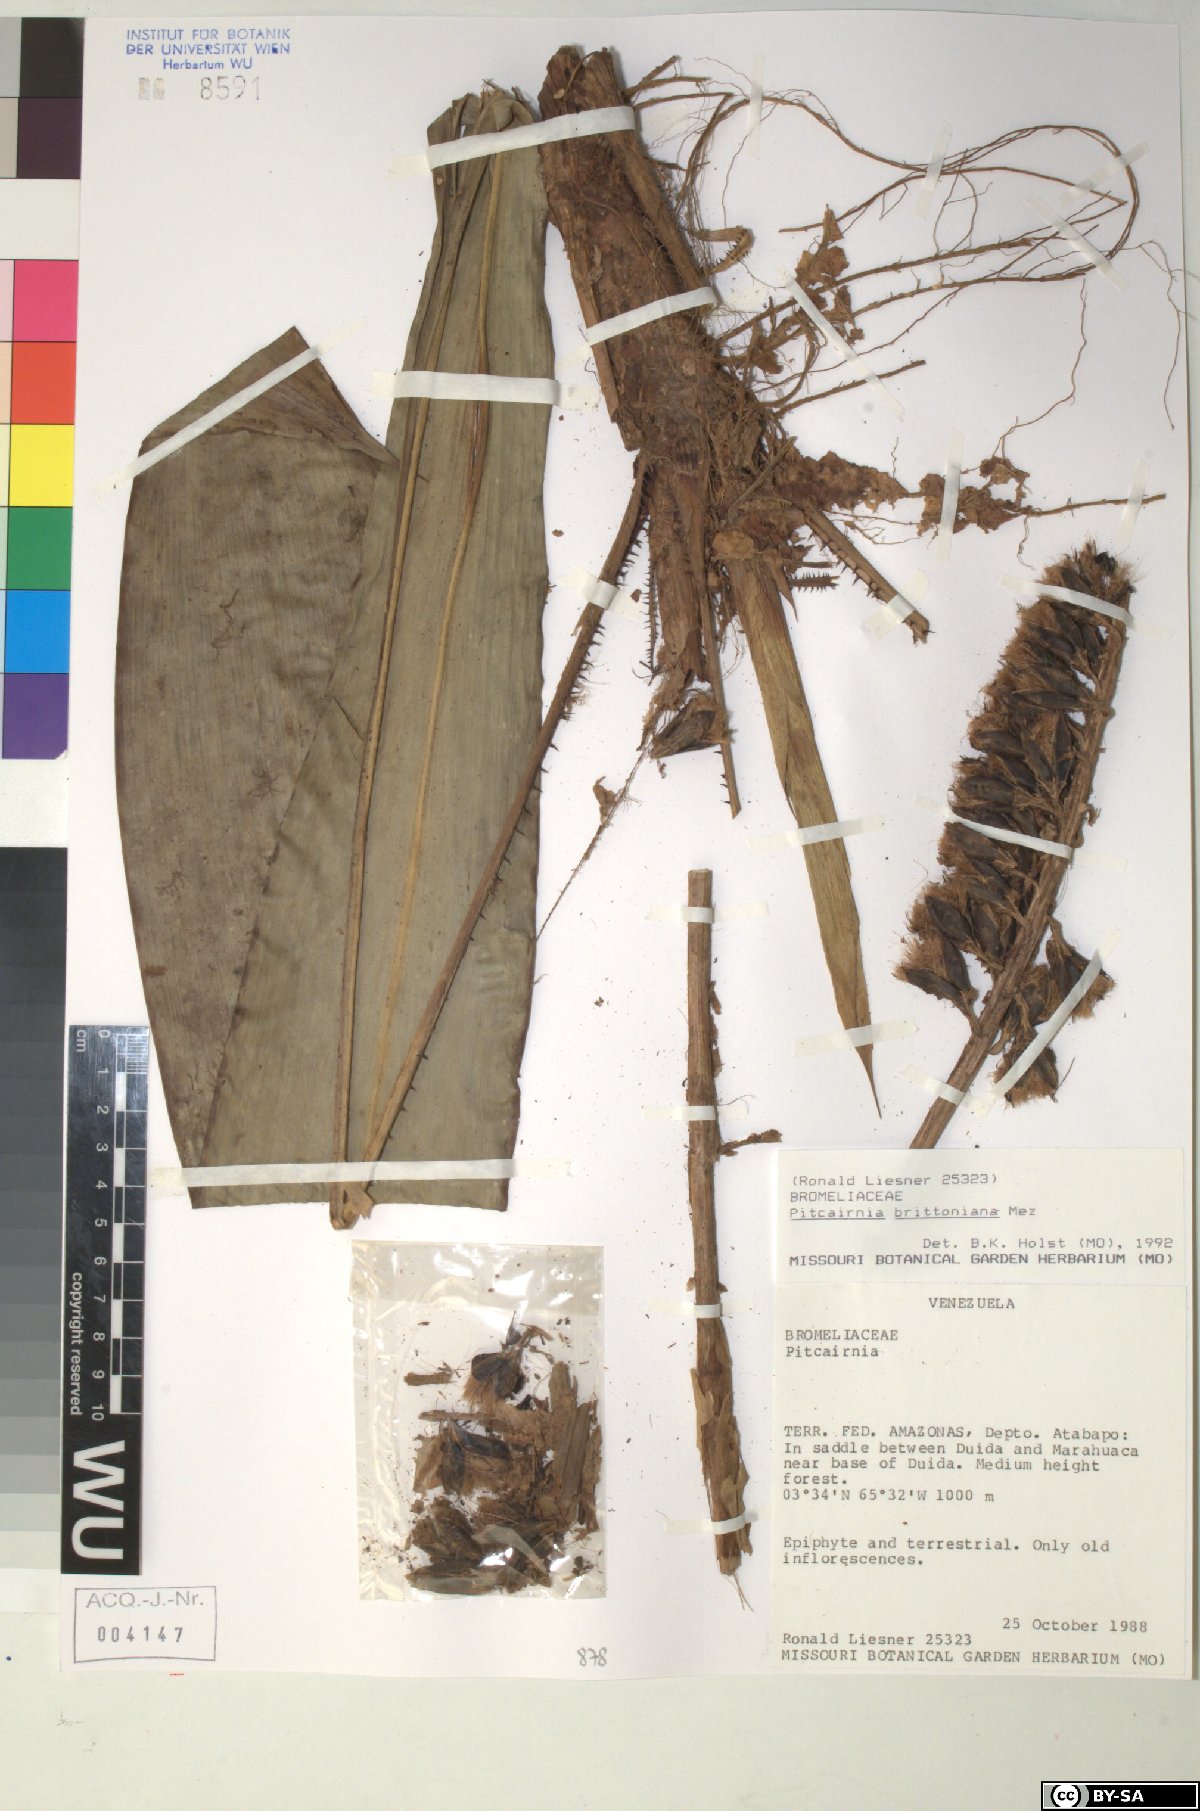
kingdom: Plantae
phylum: Tracheophyta
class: Liliopsida
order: Poales
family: Bromeliaceae
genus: Pitcairnia
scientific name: Pitcairnia brittoniana
